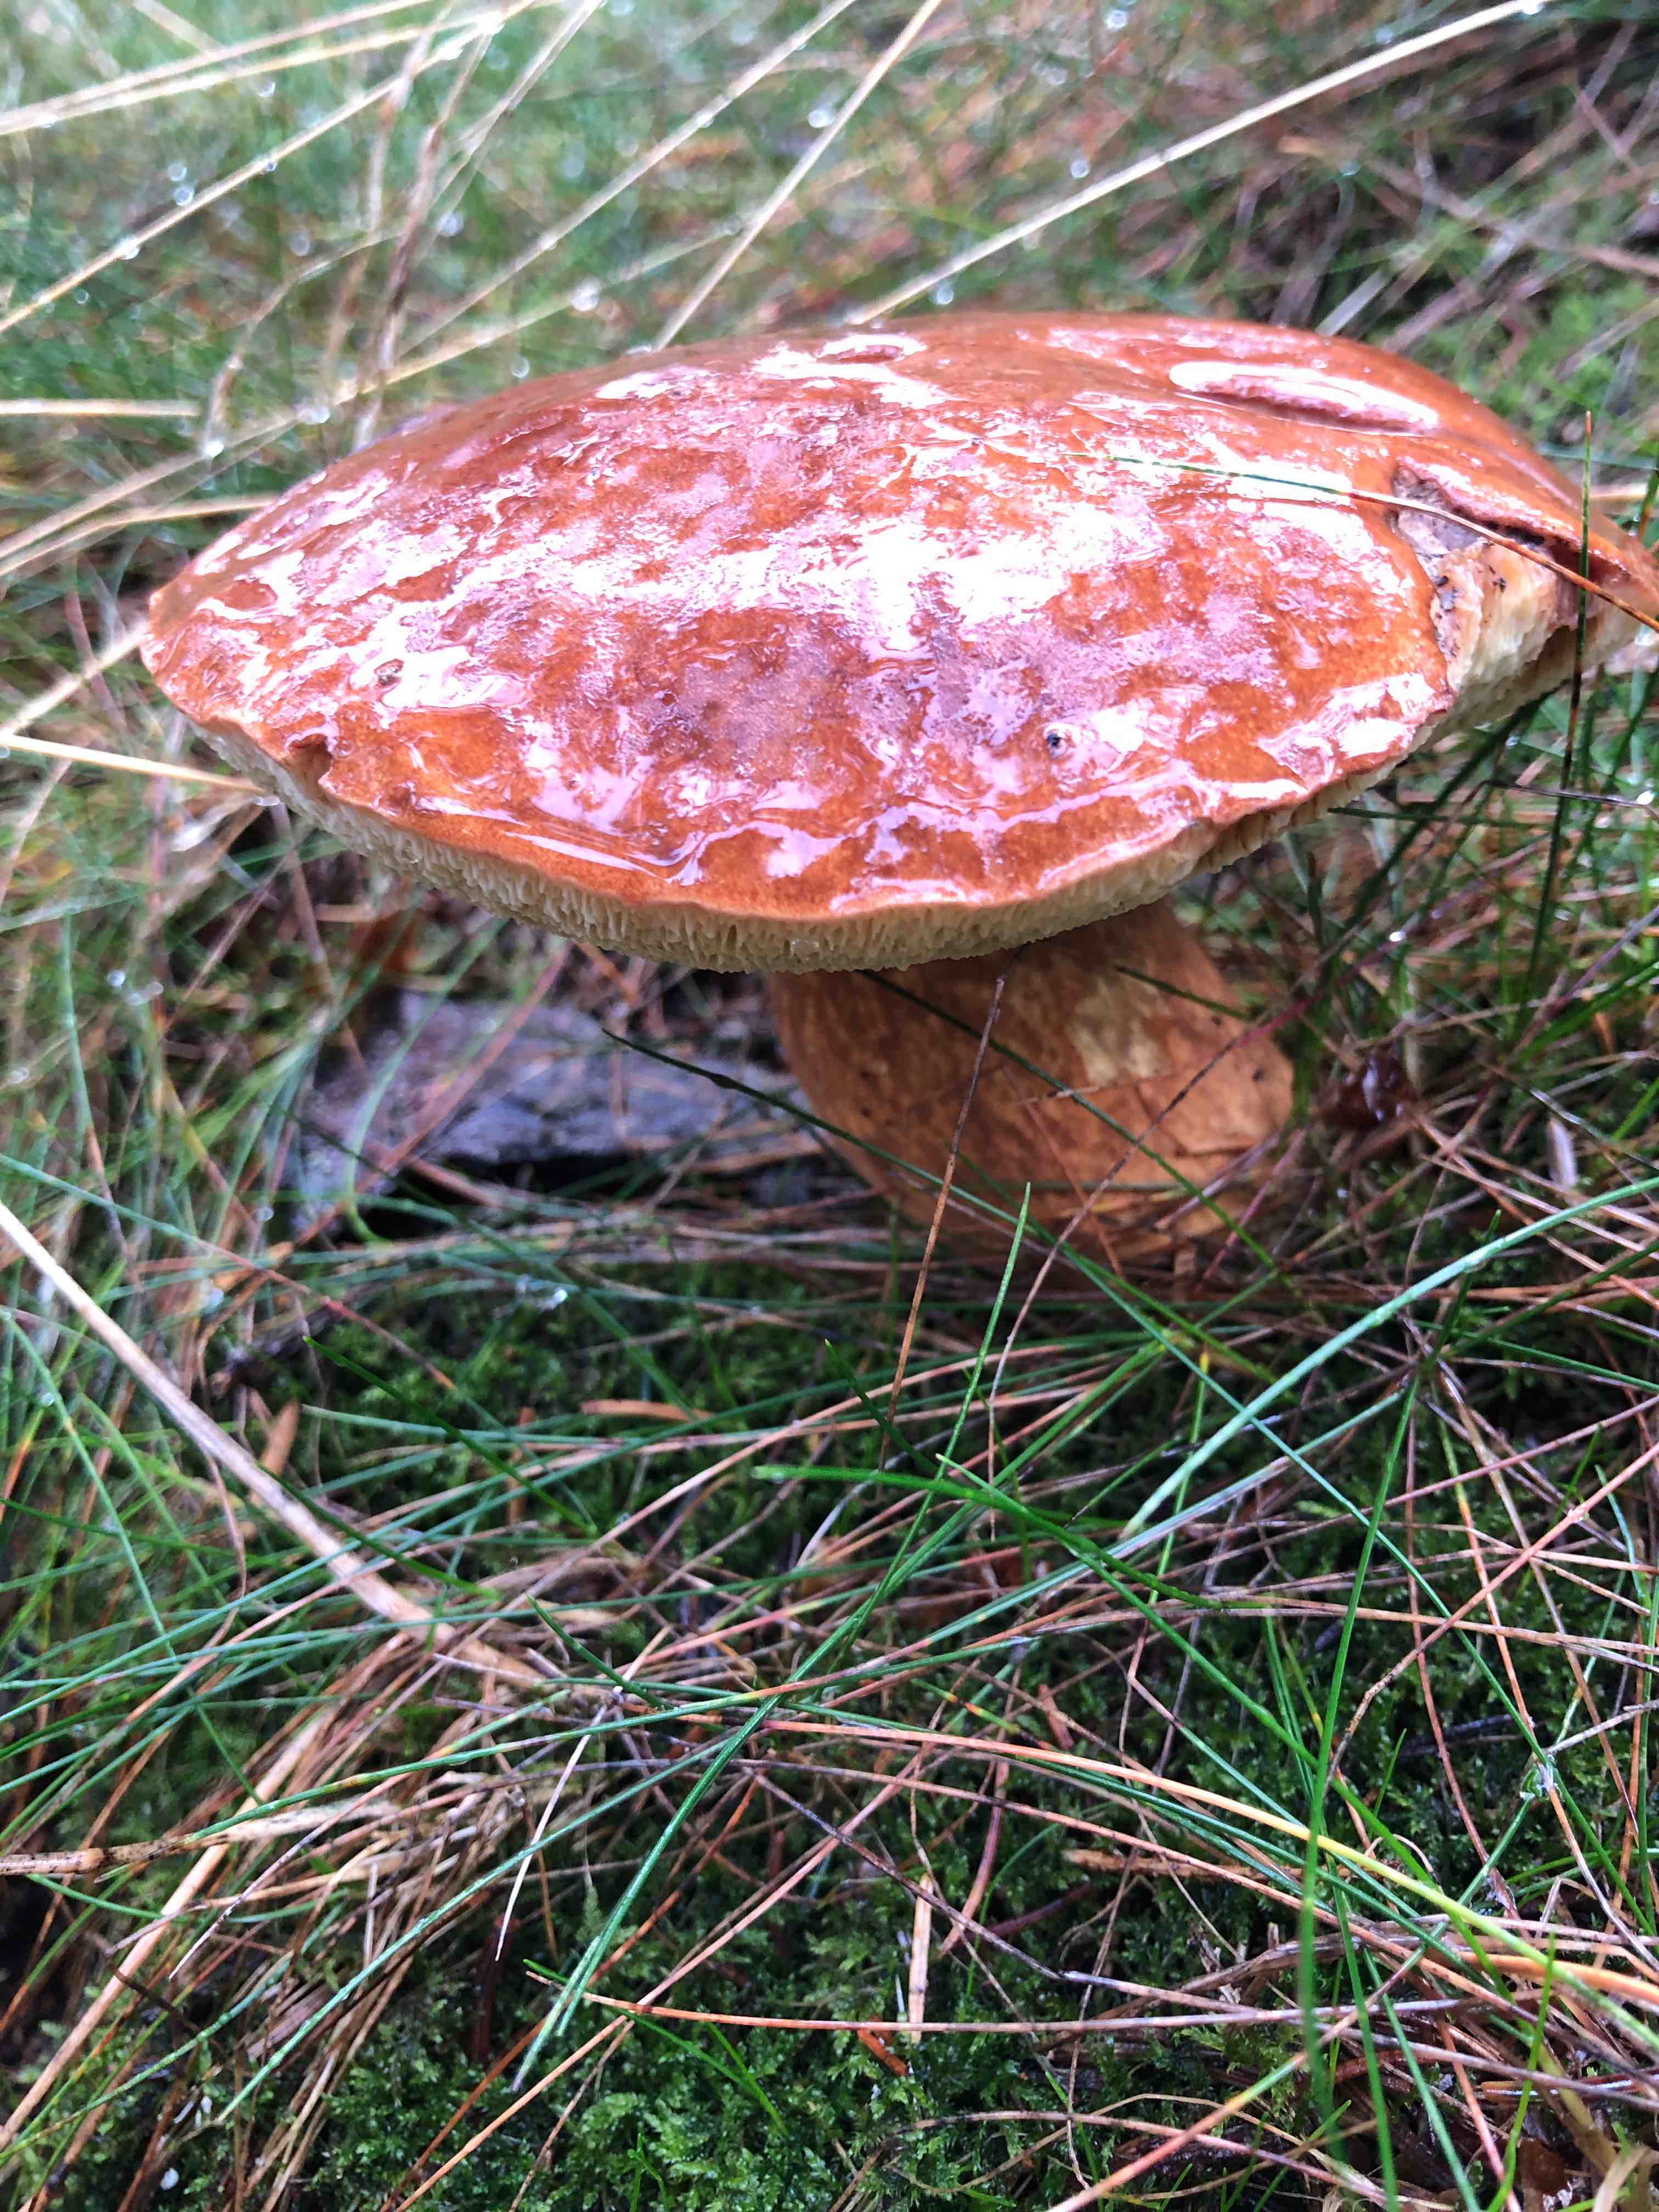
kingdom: Fungi
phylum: Basidiomycota
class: Agaricomycetes
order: Boletales
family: Boletaceae
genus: Imleria
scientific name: Imleria badia
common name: brunstokket rørhat
